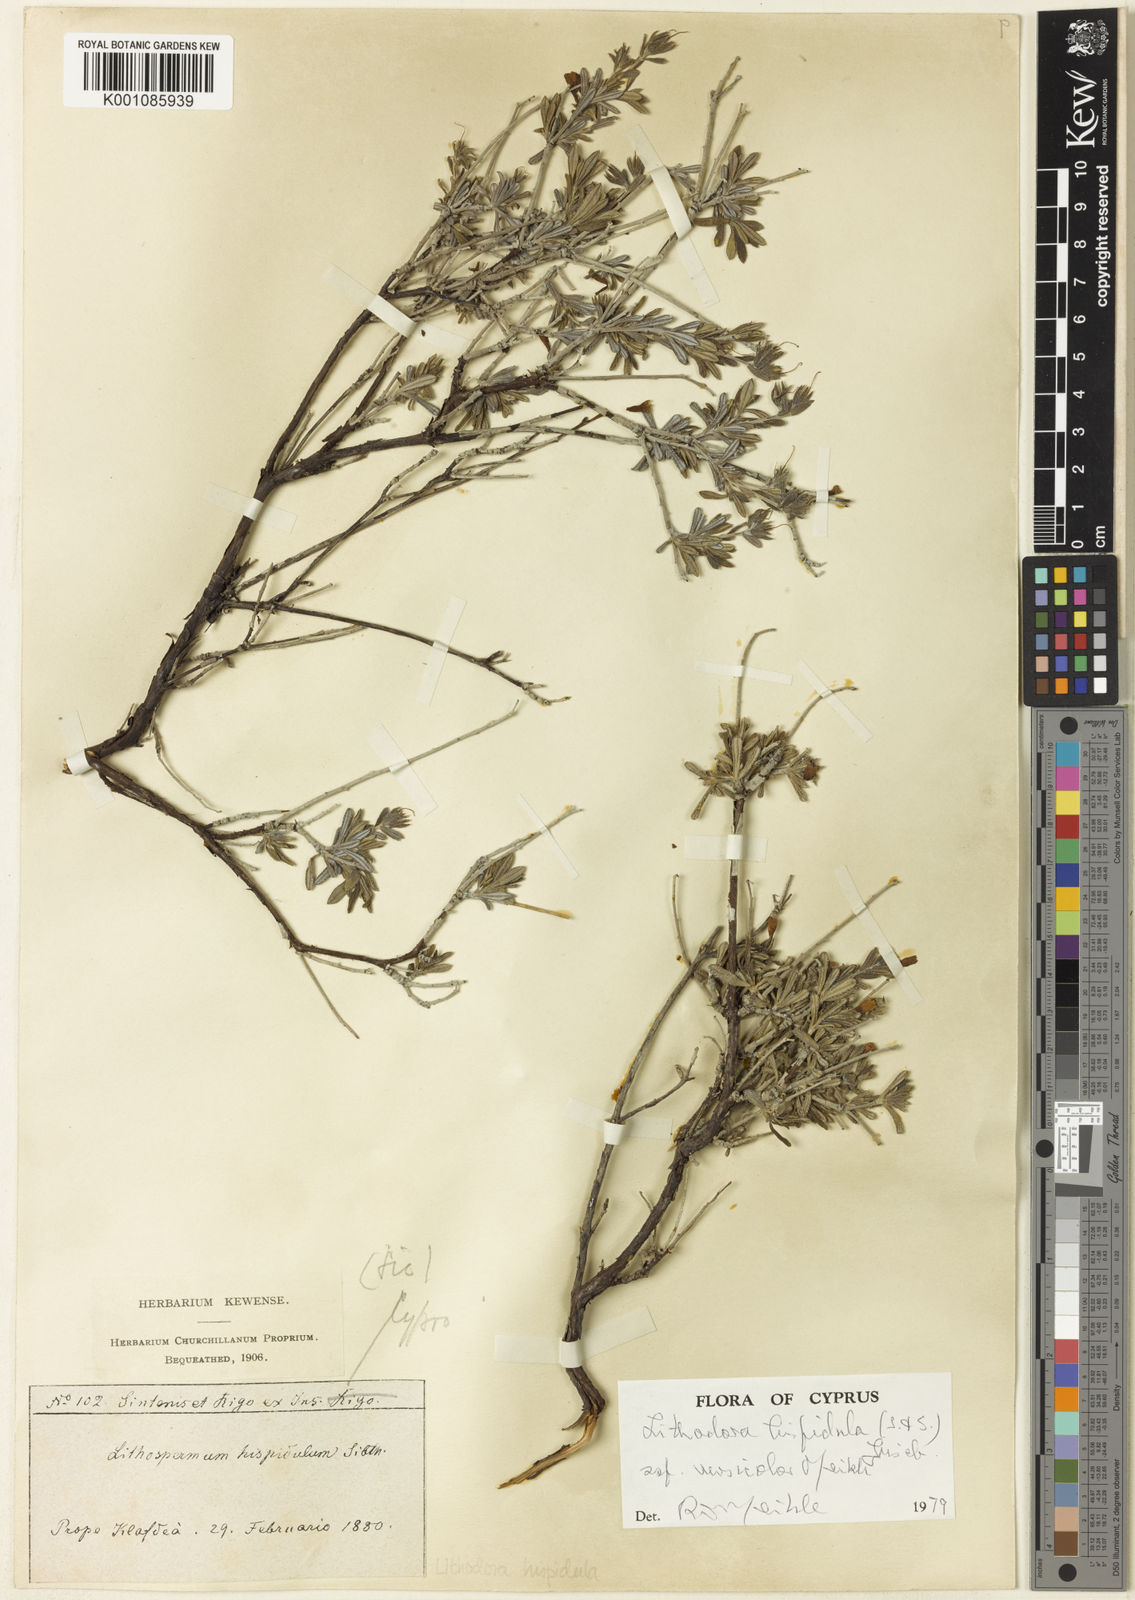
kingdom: Plantae
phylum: Tracheophyta
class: Magnoliopsida
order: Boraginales
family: Boraginaceae
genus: Lithodora
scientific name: Lithodora hispidula
